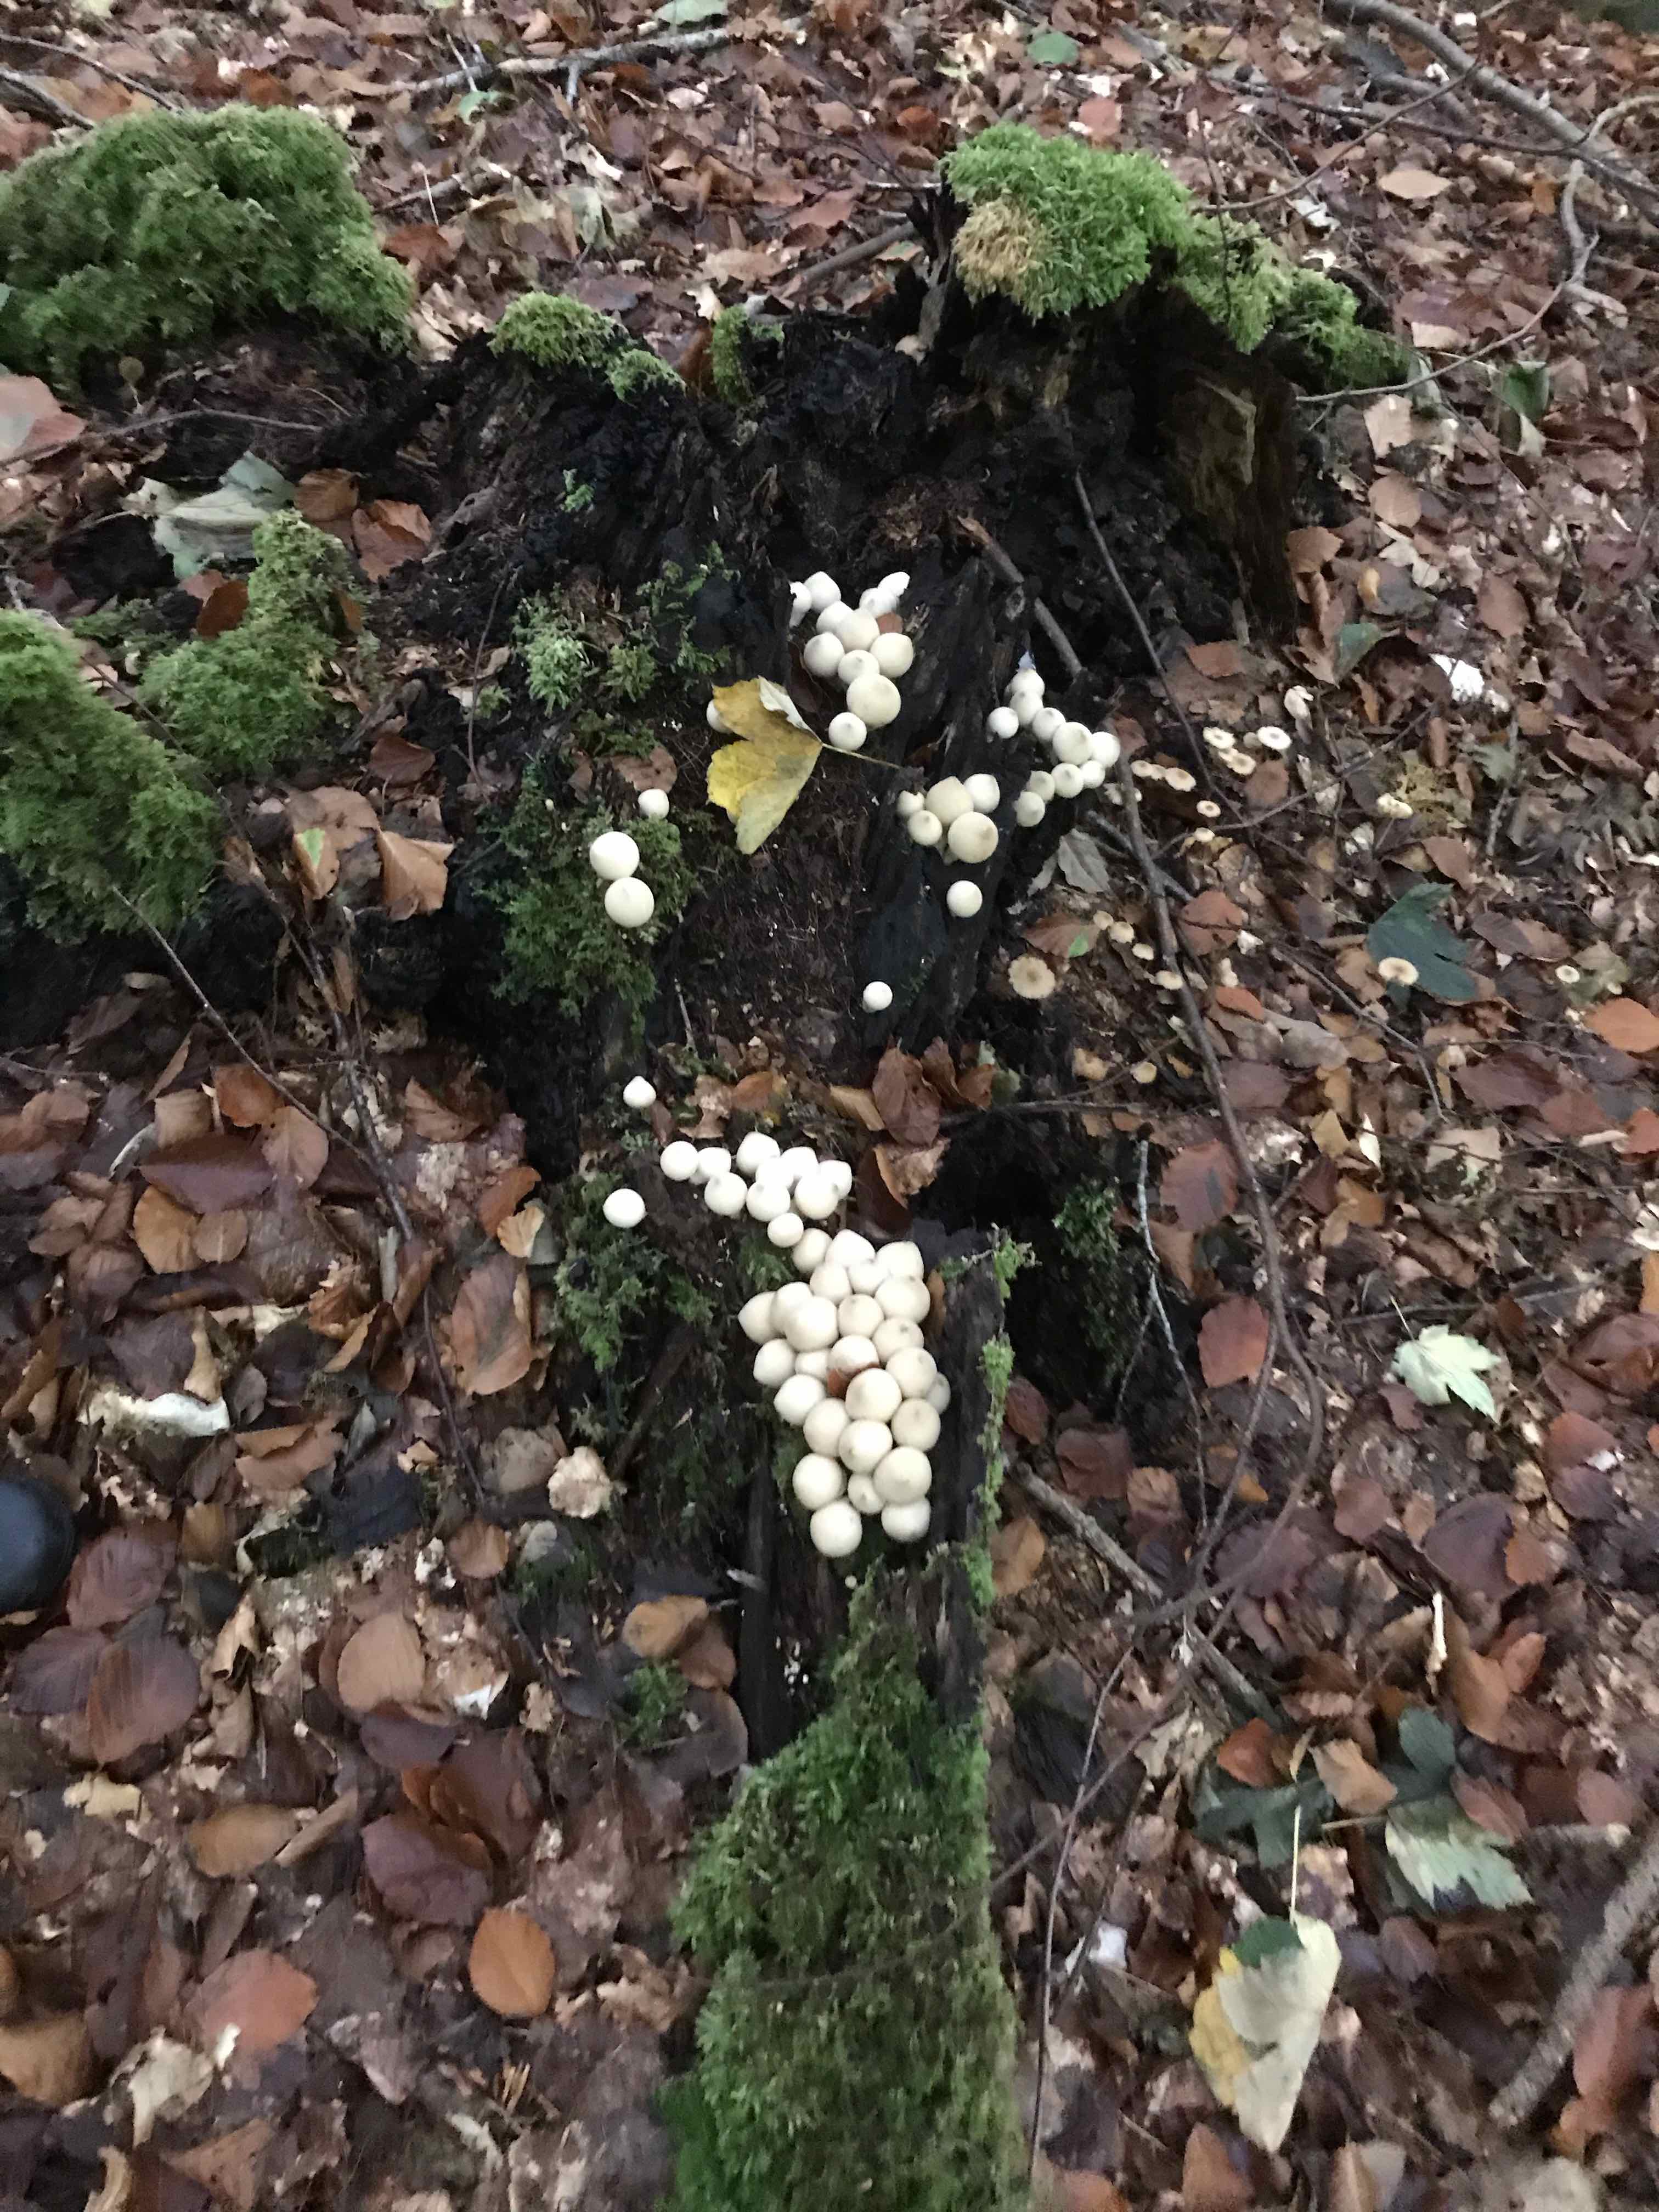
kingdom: Fungi
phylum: Basidiomycota
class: Agaricomycetes
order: Agaricales
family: Lycoperdaceae
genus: Apioperdon
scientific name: Apioperdon pyriforme
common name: pære-støvbold
